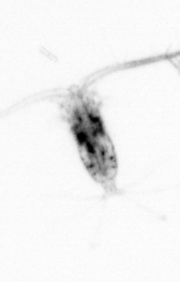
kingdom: Animalia
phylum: Arthropoda
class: Copepoda
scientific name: Copepoda
